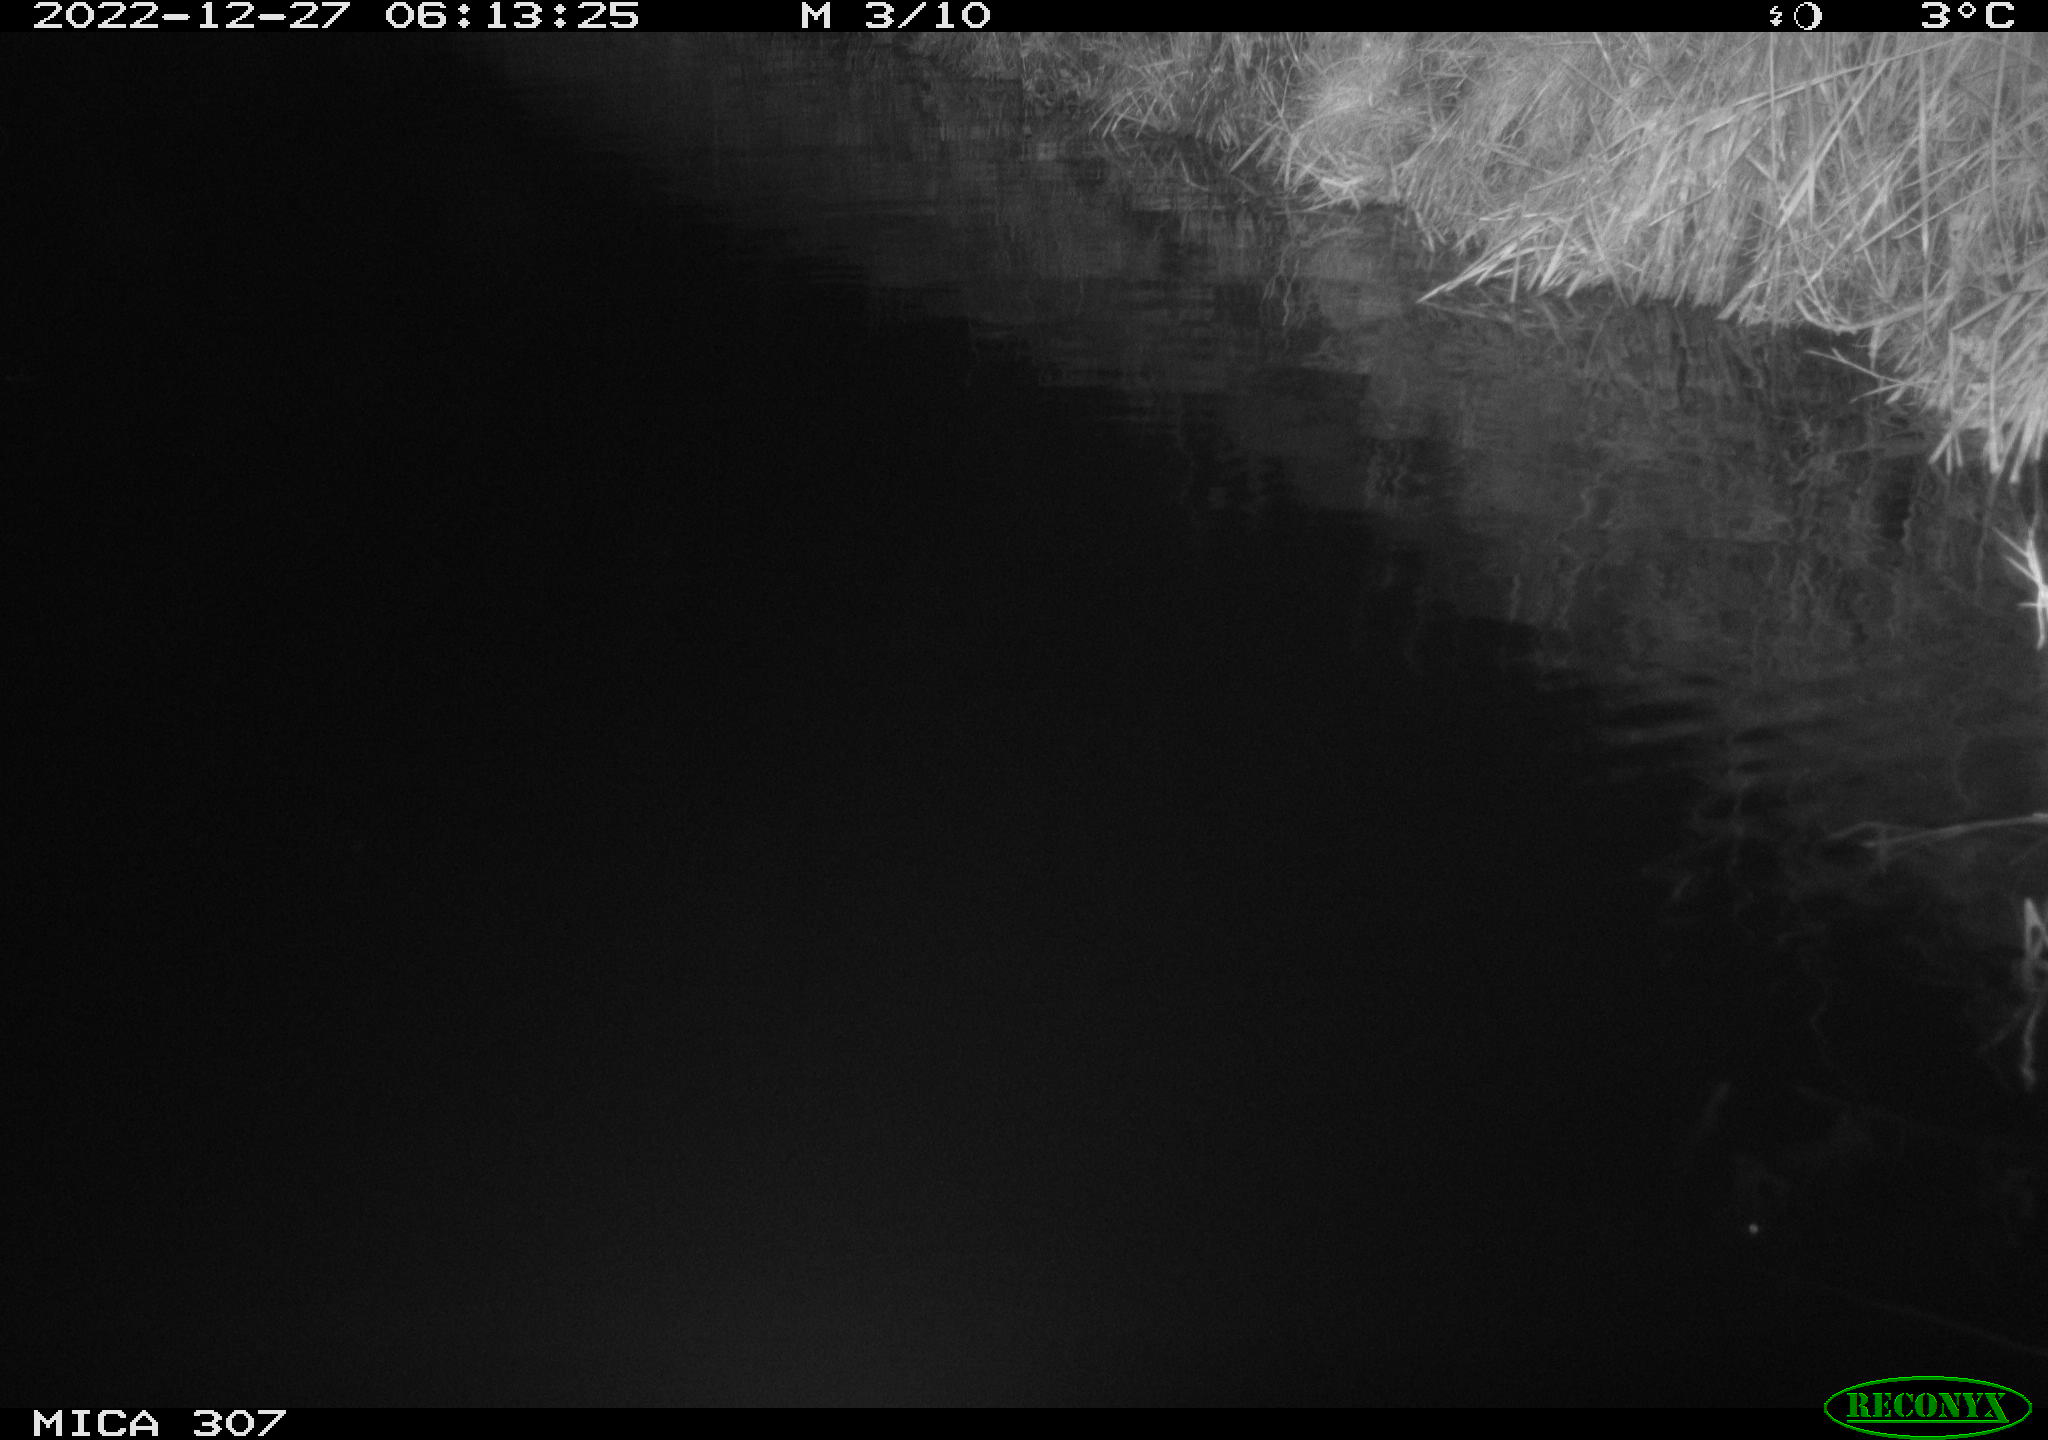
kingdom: Animalia
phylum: Chordata
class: Aves
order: Anseriformes
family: Anatidae
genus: Anas
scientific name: Anas
